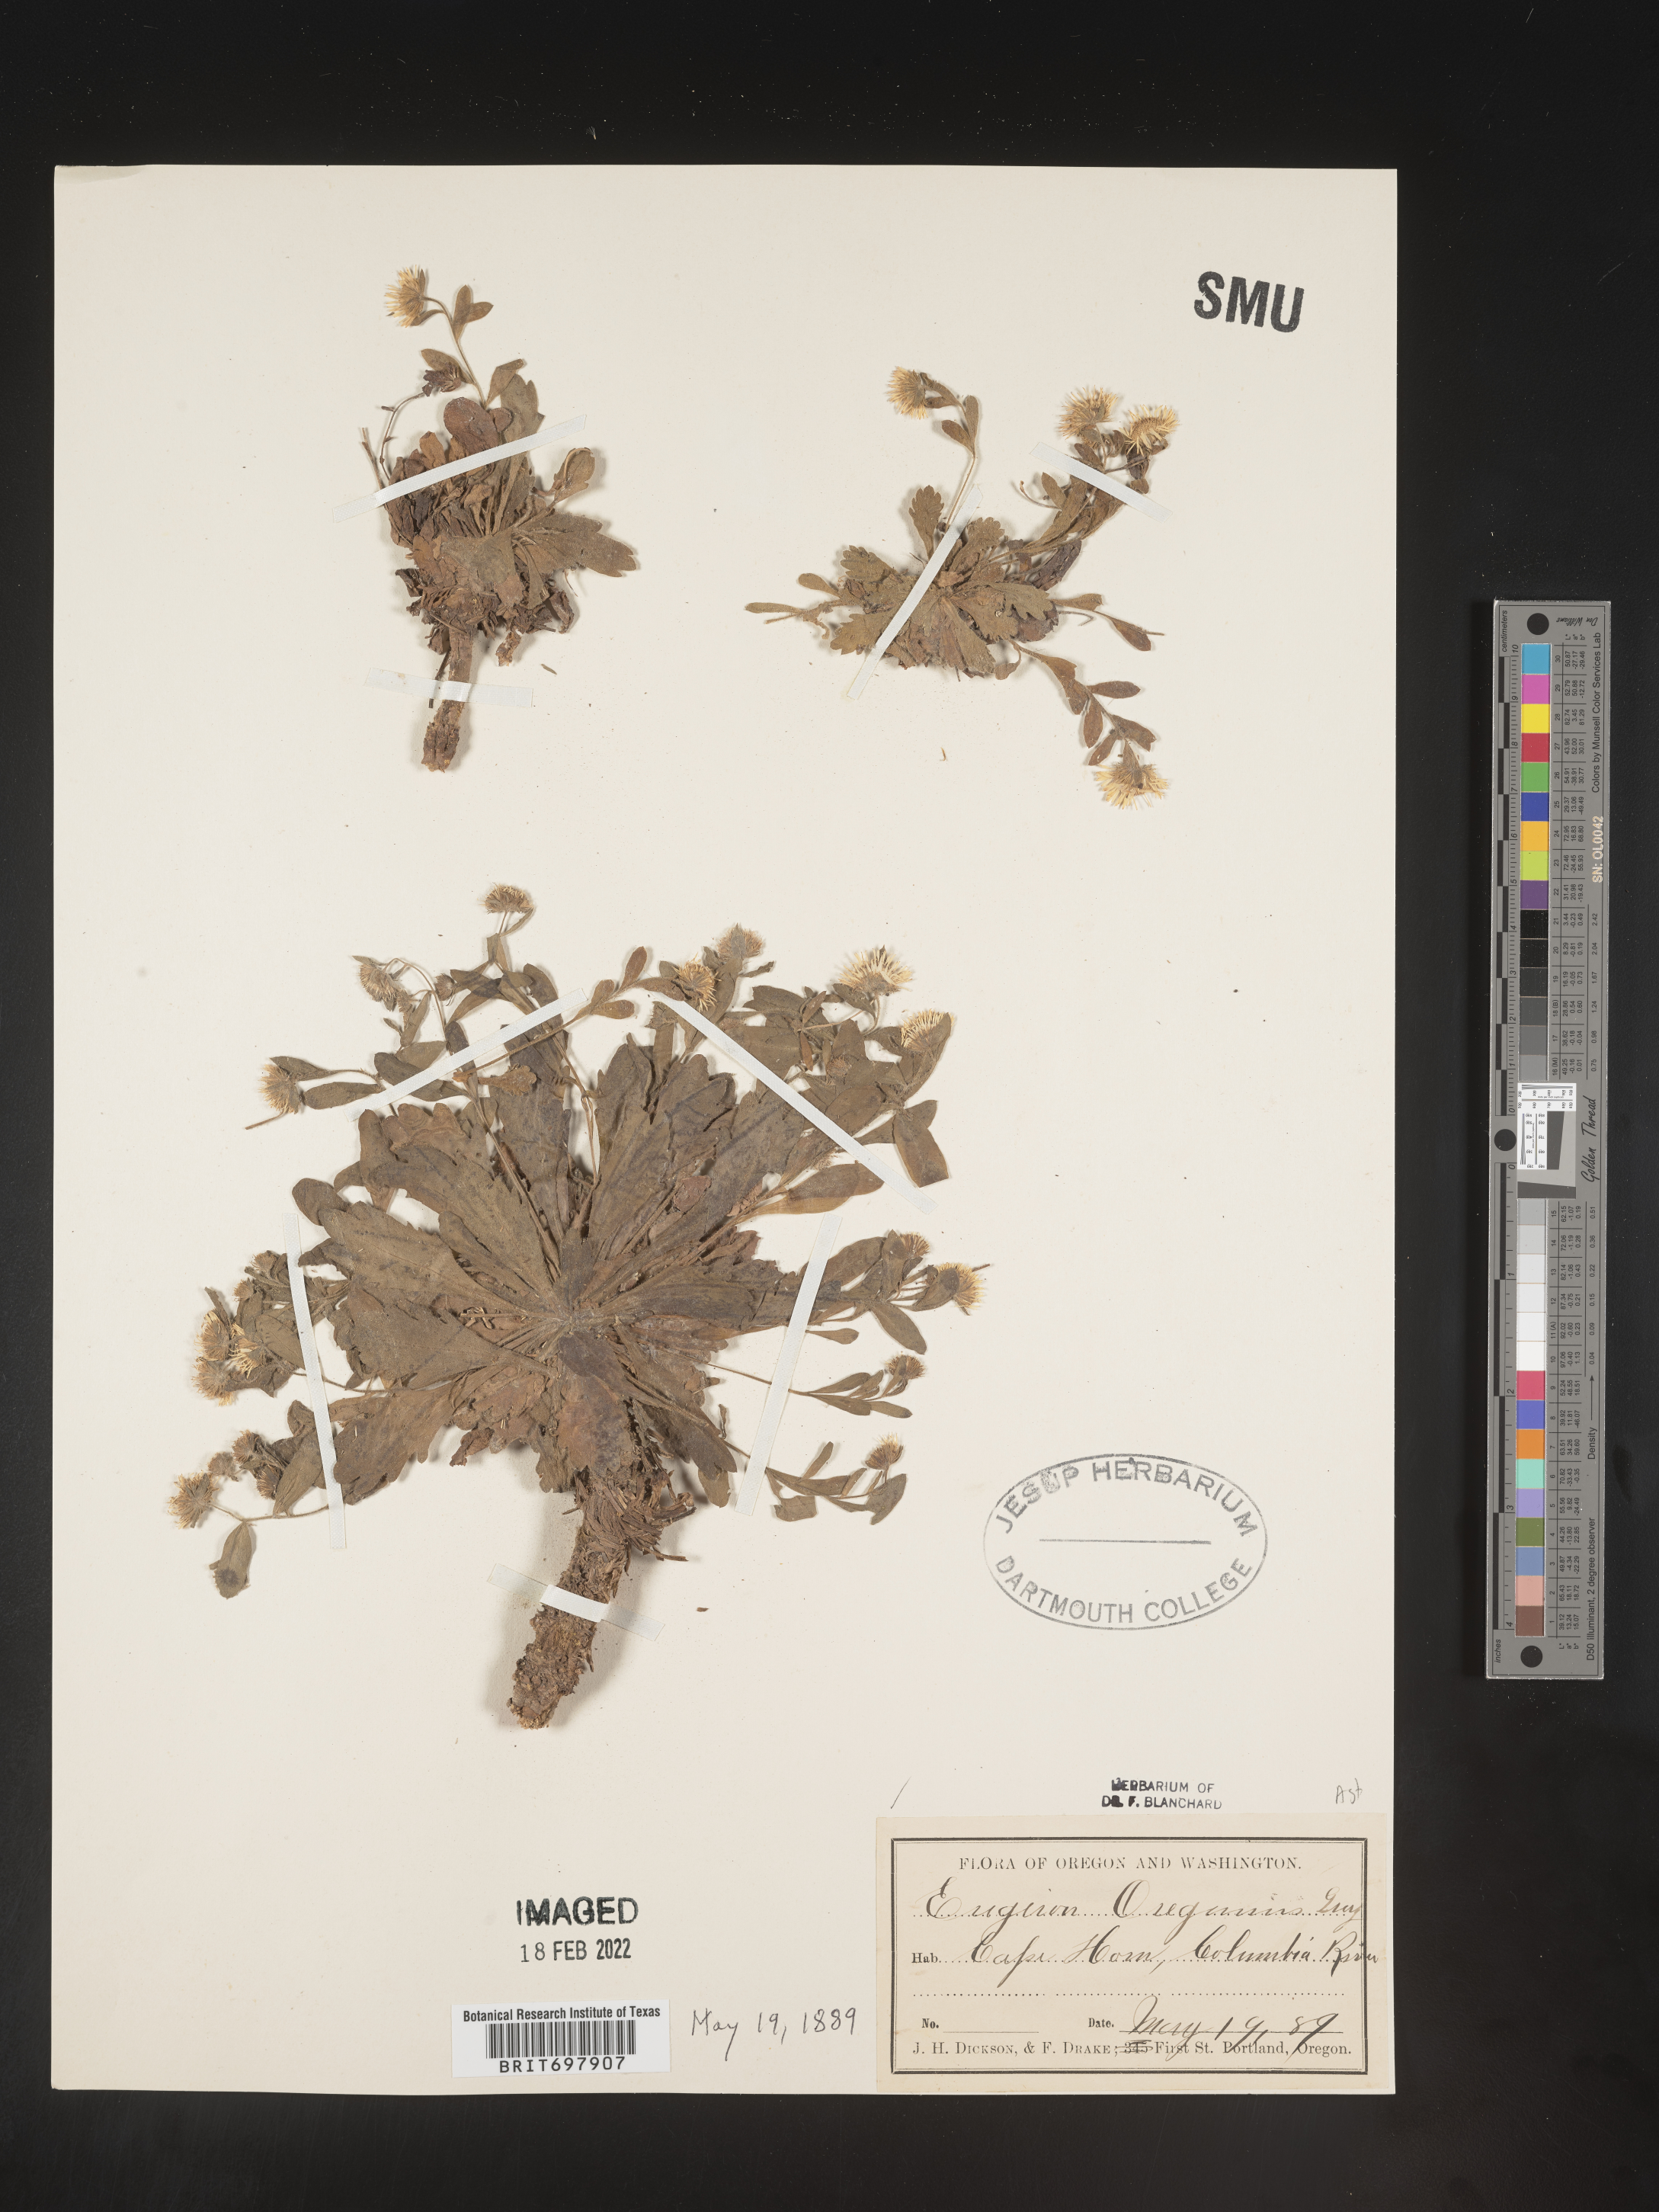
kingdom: Plantae
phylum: Tracheophyta
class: Magnoliopsida
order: Asterales
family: Asteraceae
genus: Erigeron
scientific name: Erigeron oreganus
